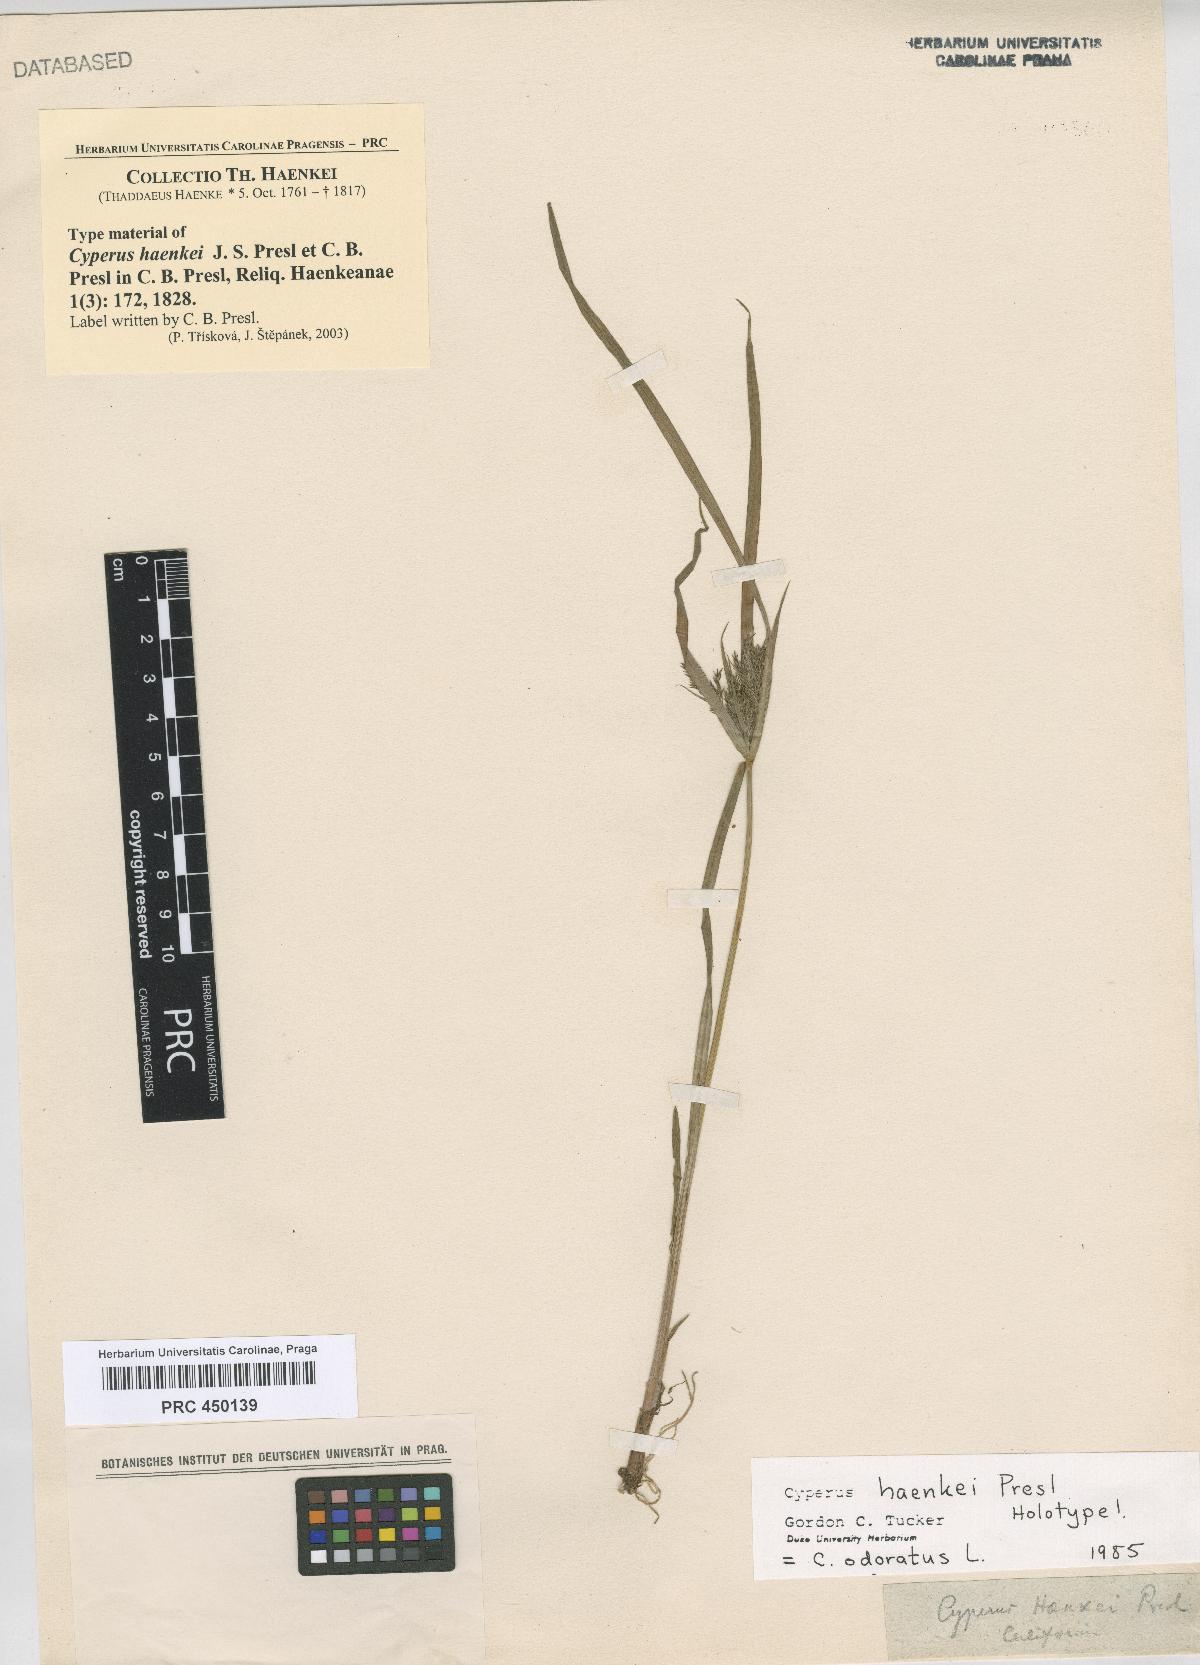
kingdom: Plantae
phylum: Tracheophyta
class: Liliopsida
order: Poales
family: Cyperaceae
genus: Cyperus
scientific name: Cyperus odoratus
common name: Fragrant flatsedge
